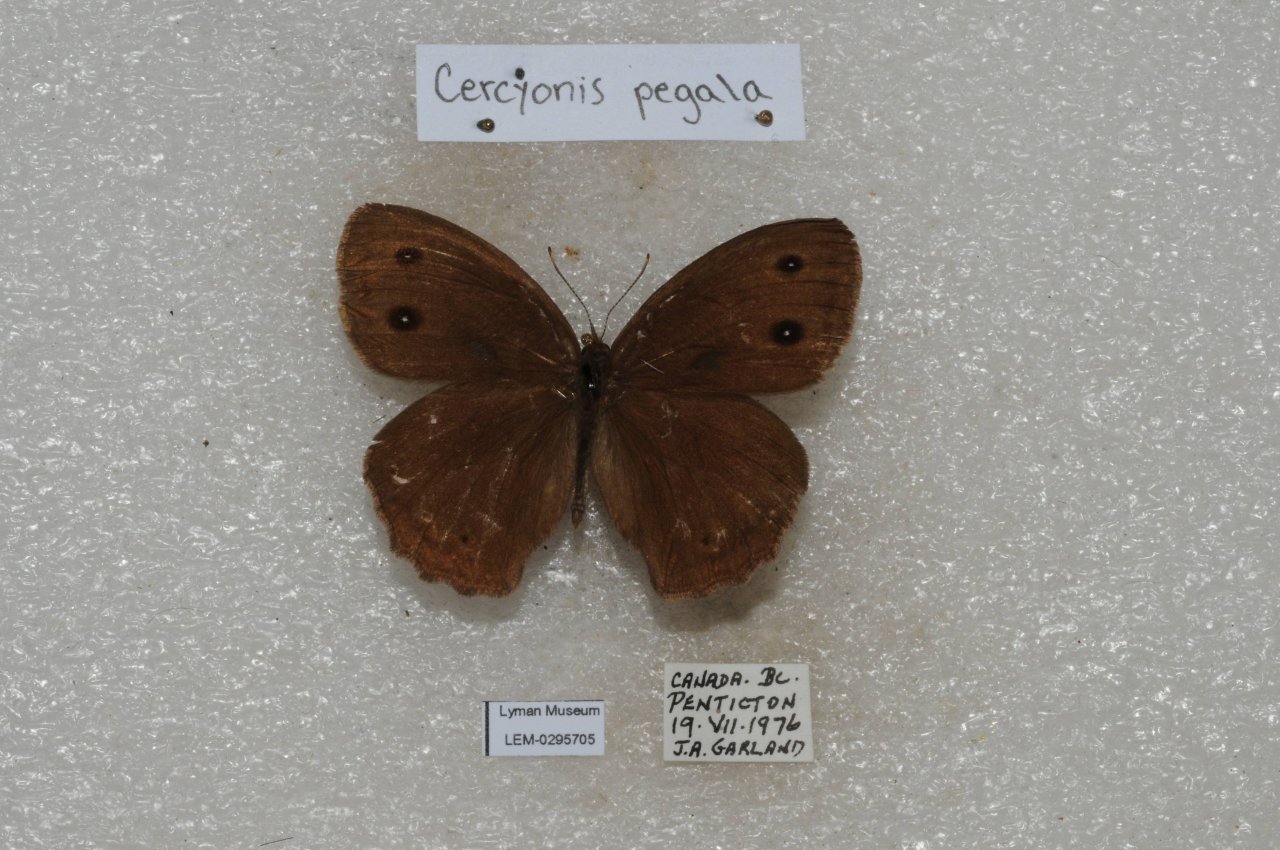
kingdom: Animalia
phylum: Arthropoda
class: Insecta
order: Lepidoptera
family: Nymphalidae
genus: Cercyonis
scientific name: Cercyonis pegala
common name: Common Wood-Nymph
